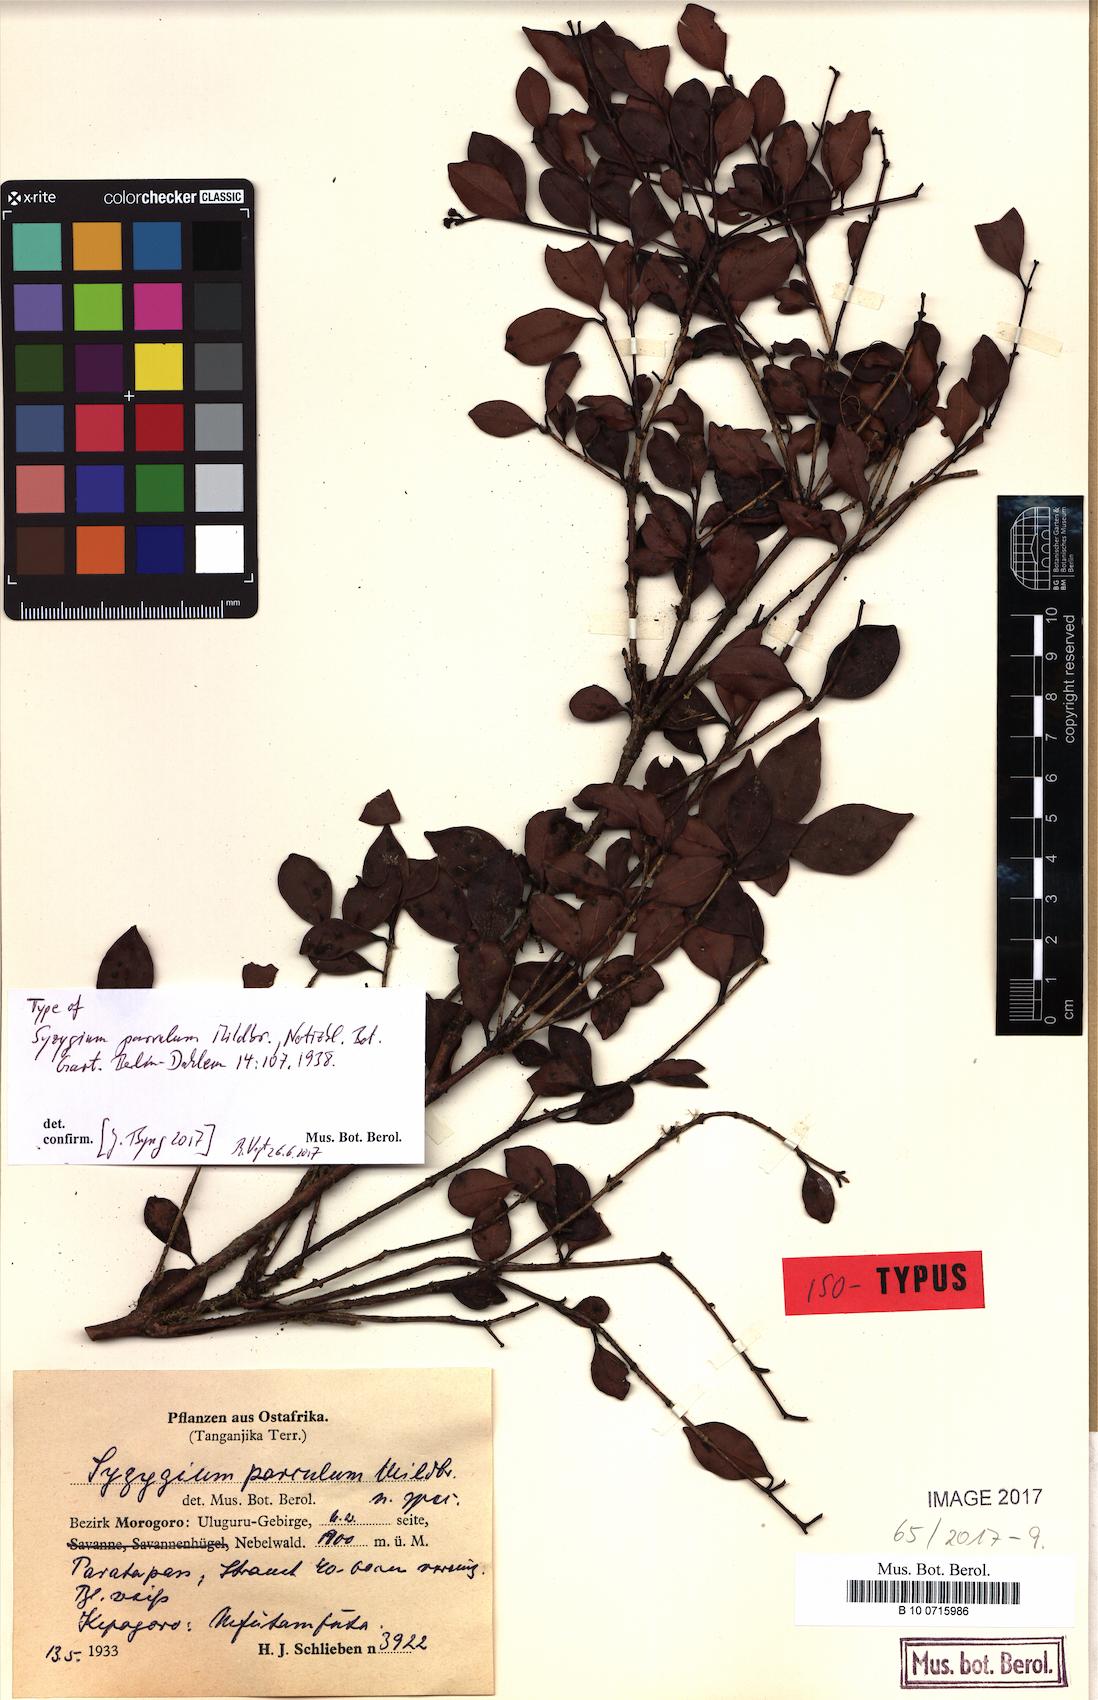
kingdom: Plantae
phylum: Tracheophyta
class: Magnoliopsida
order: Myrtales
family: Myrtaceae
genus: Syzygium
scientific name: Syzygium parvulum
